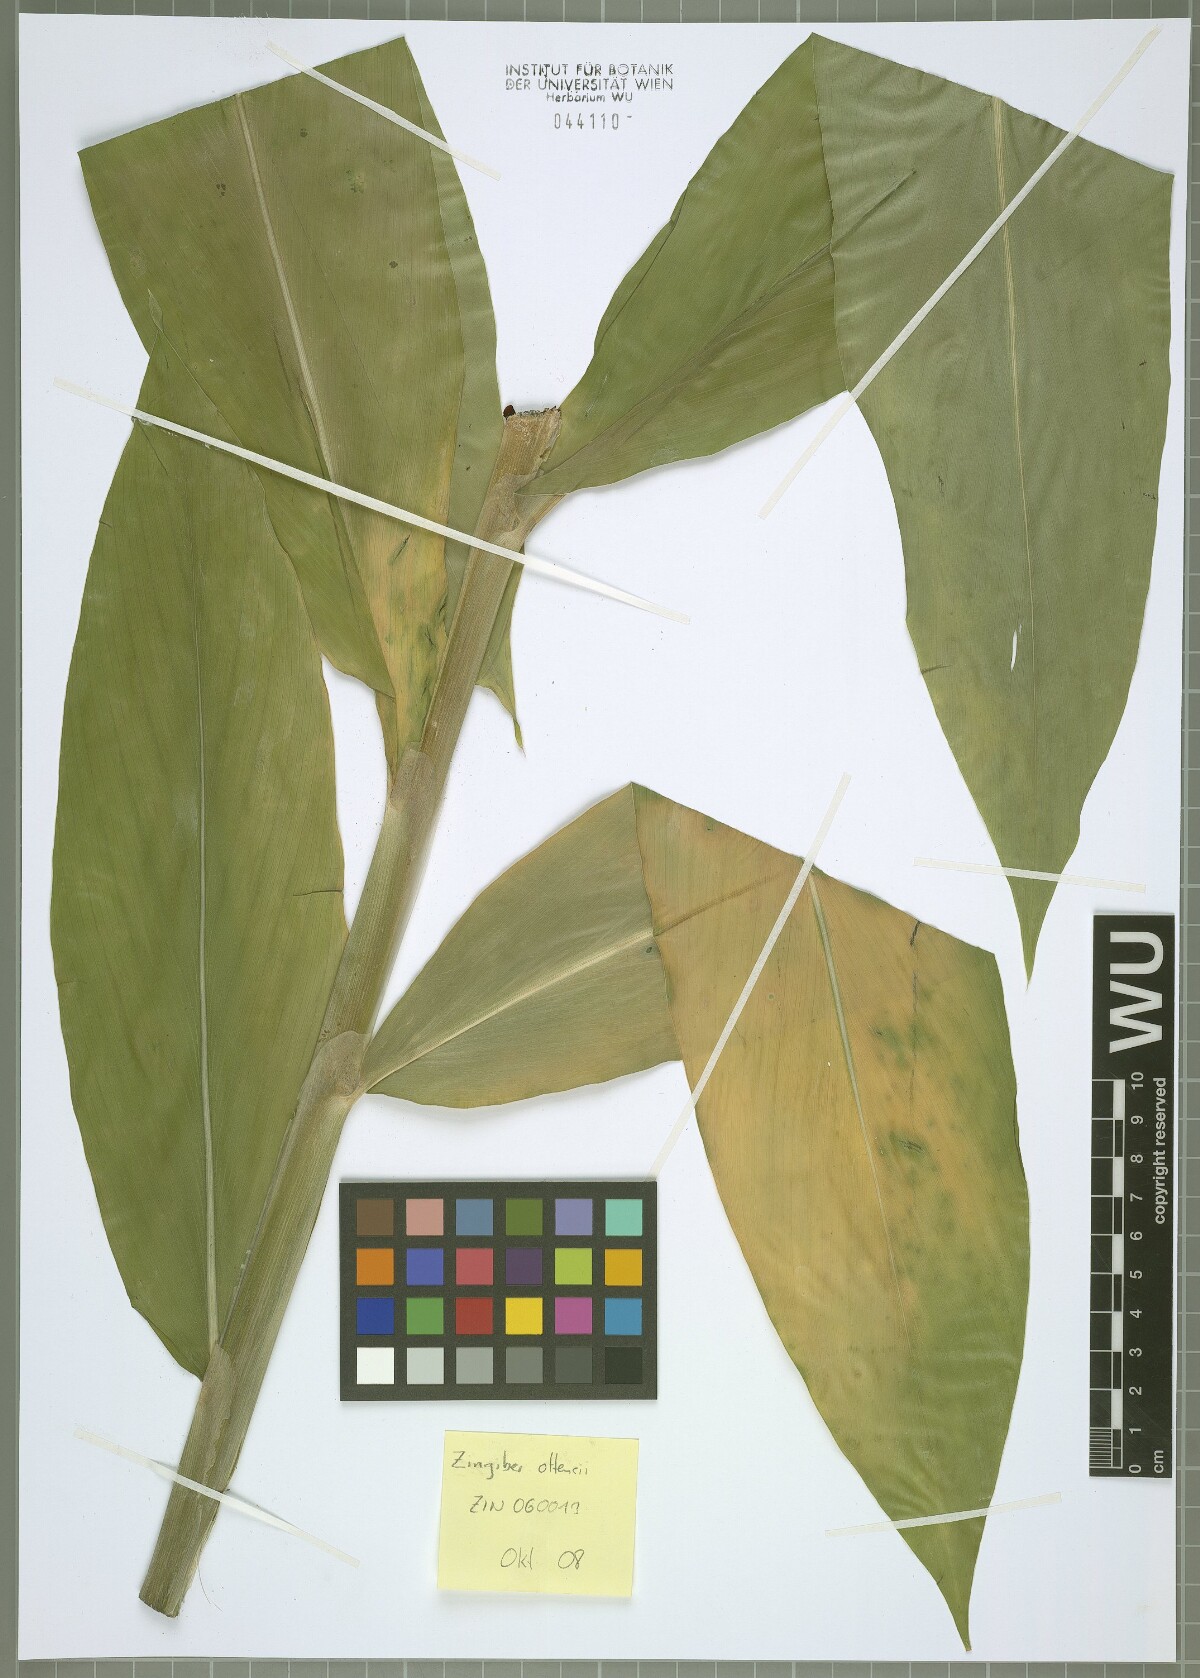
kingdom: Plantae
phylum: Tracheophyta
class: Liliopsida
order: Zingiberales
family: Zingiberaceae
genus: Zingiber
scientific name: Zingiber ottensii
